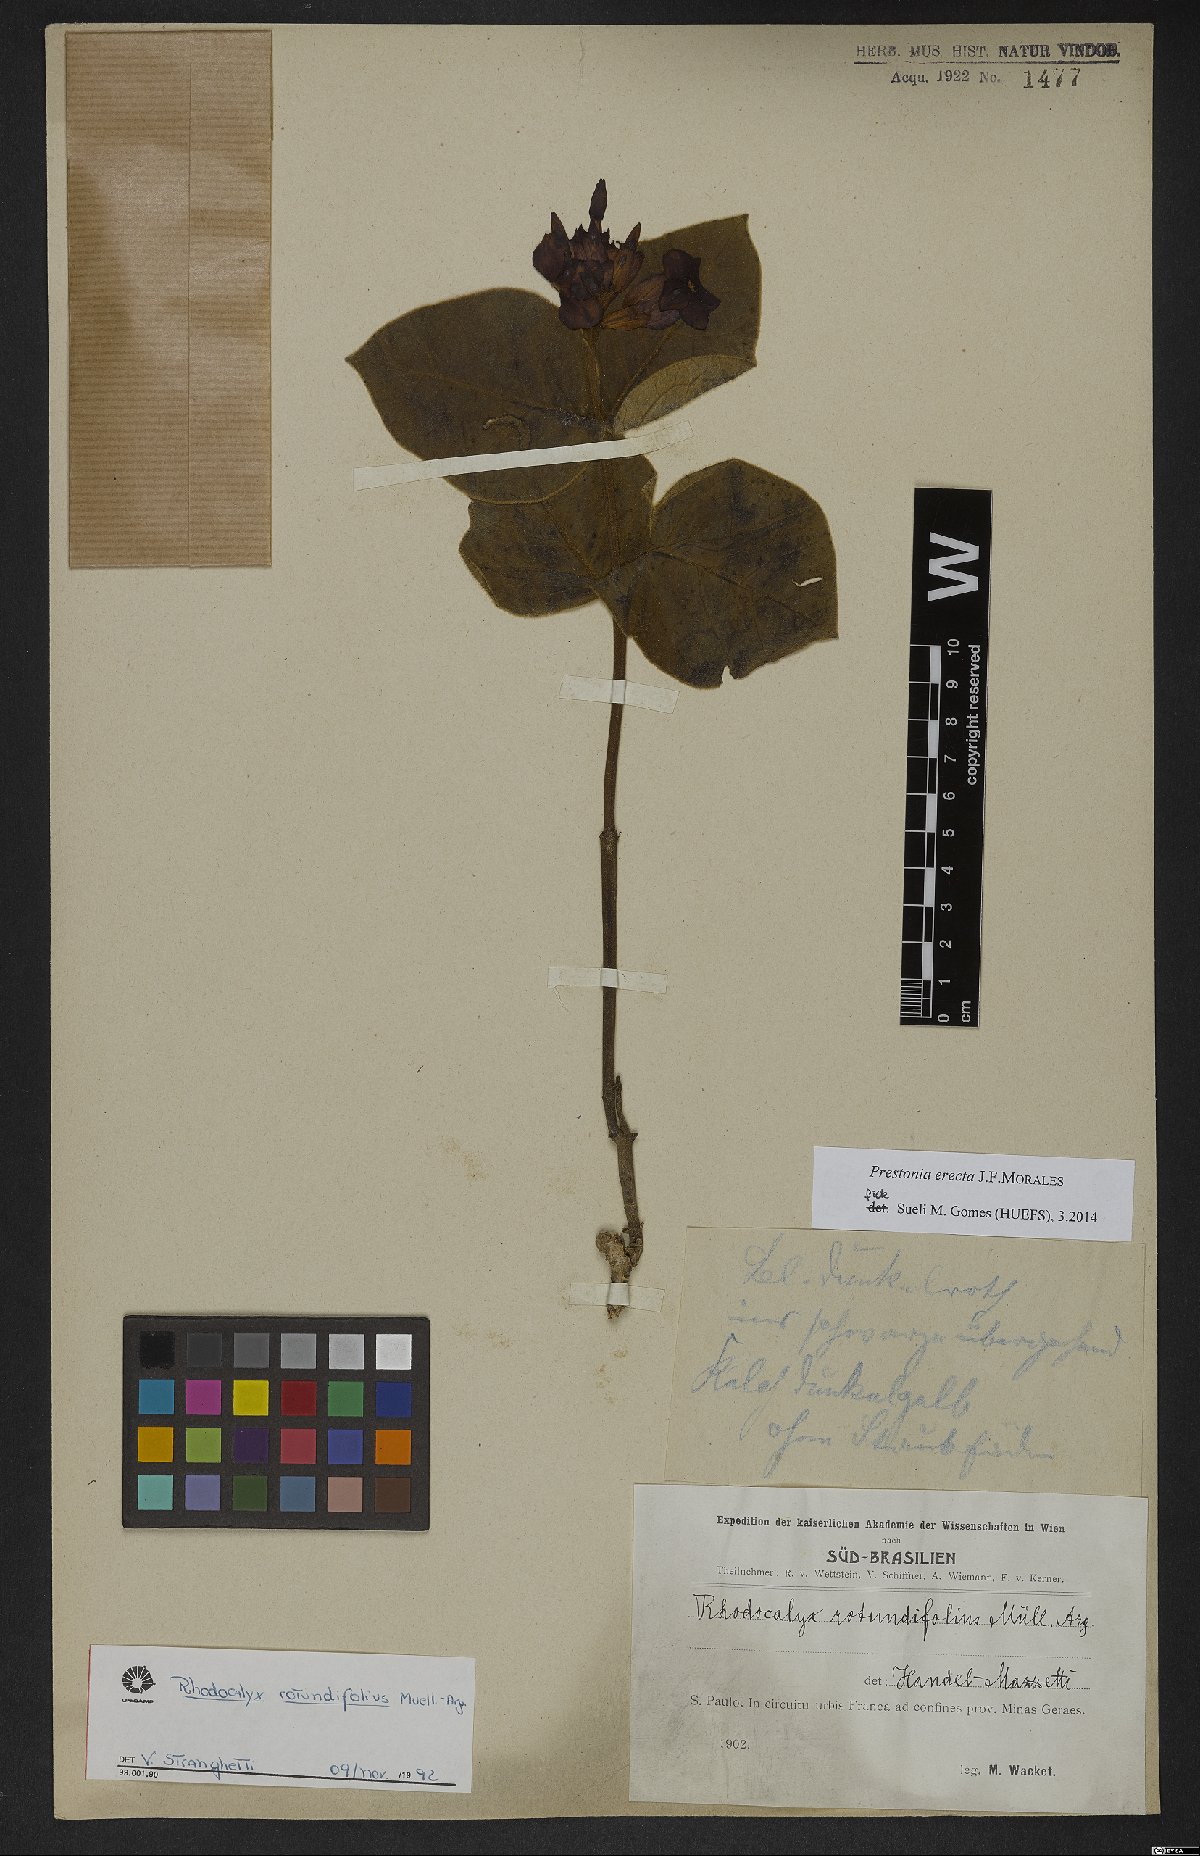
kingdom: Plantae
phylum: Tracheophyta
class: Magnoliopsida
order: Gentianales
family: Apocynaceae
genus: Prestonia
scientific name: Prestonia erecta
